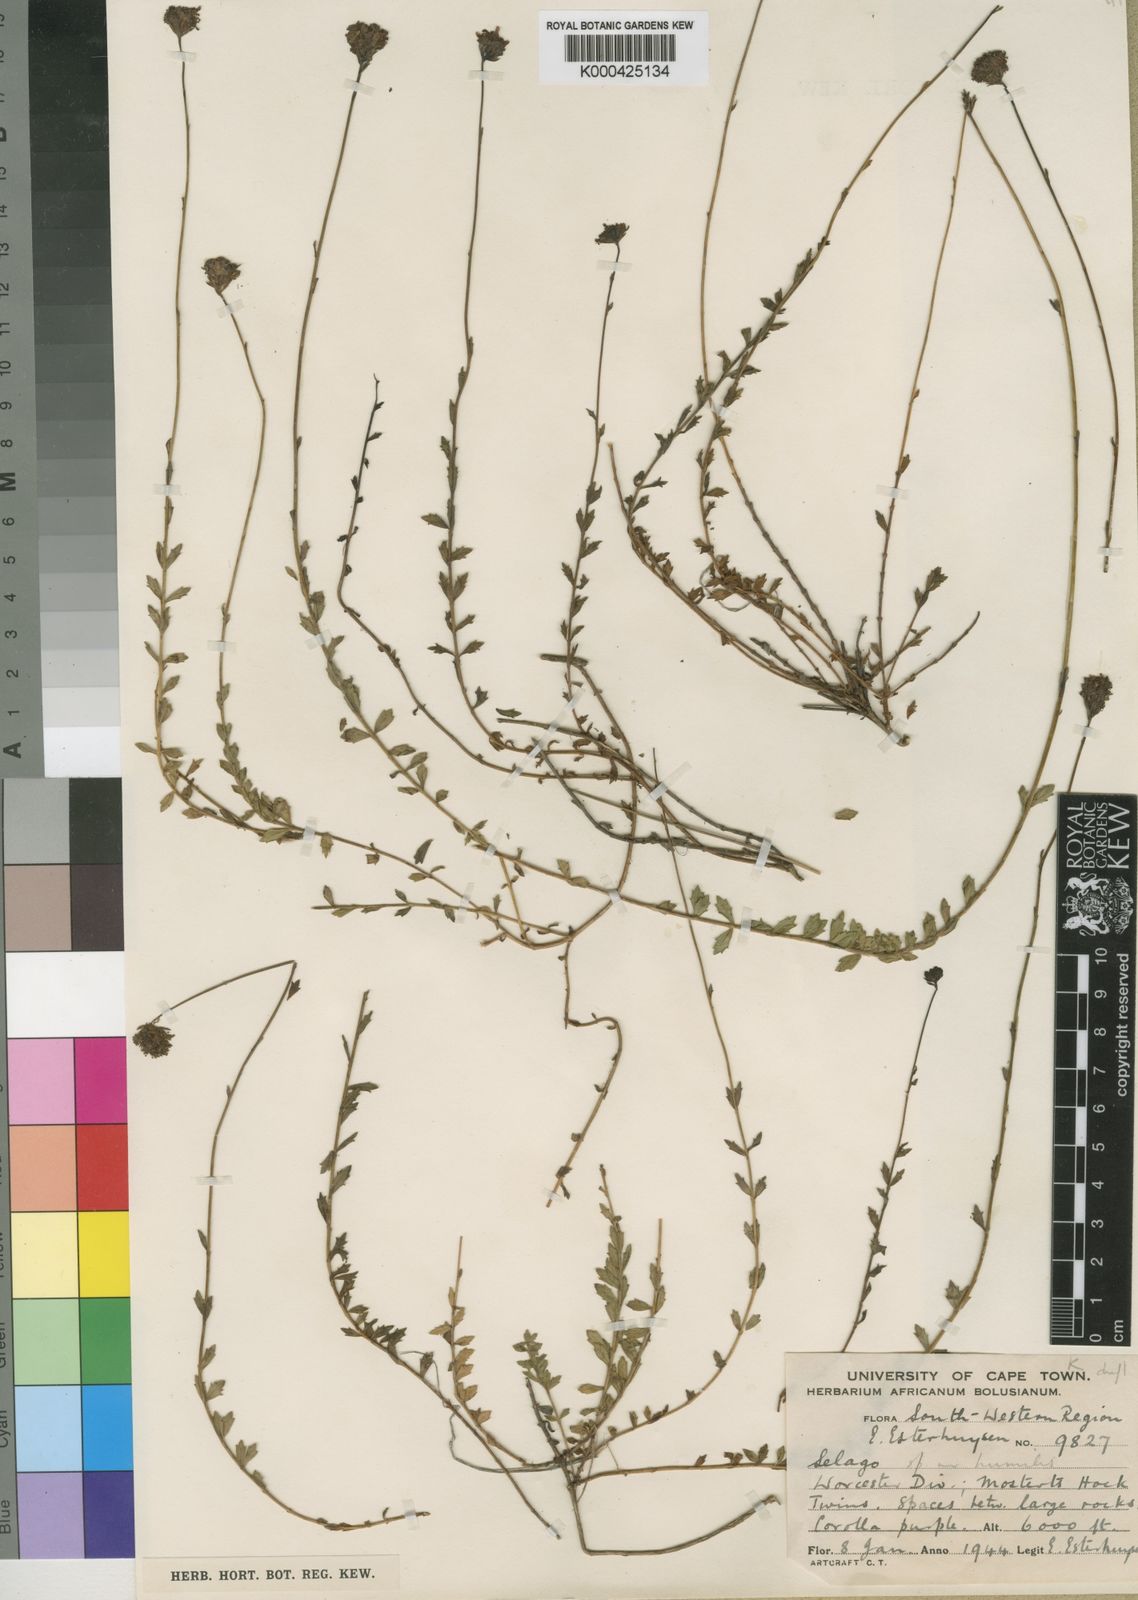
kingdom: Plantae
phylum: Tracheophyta
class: Magnoliopsida
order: Lamiales
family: Scrophulariaceae
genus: Pseudoselago
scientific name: Pseudoselago prolixa
